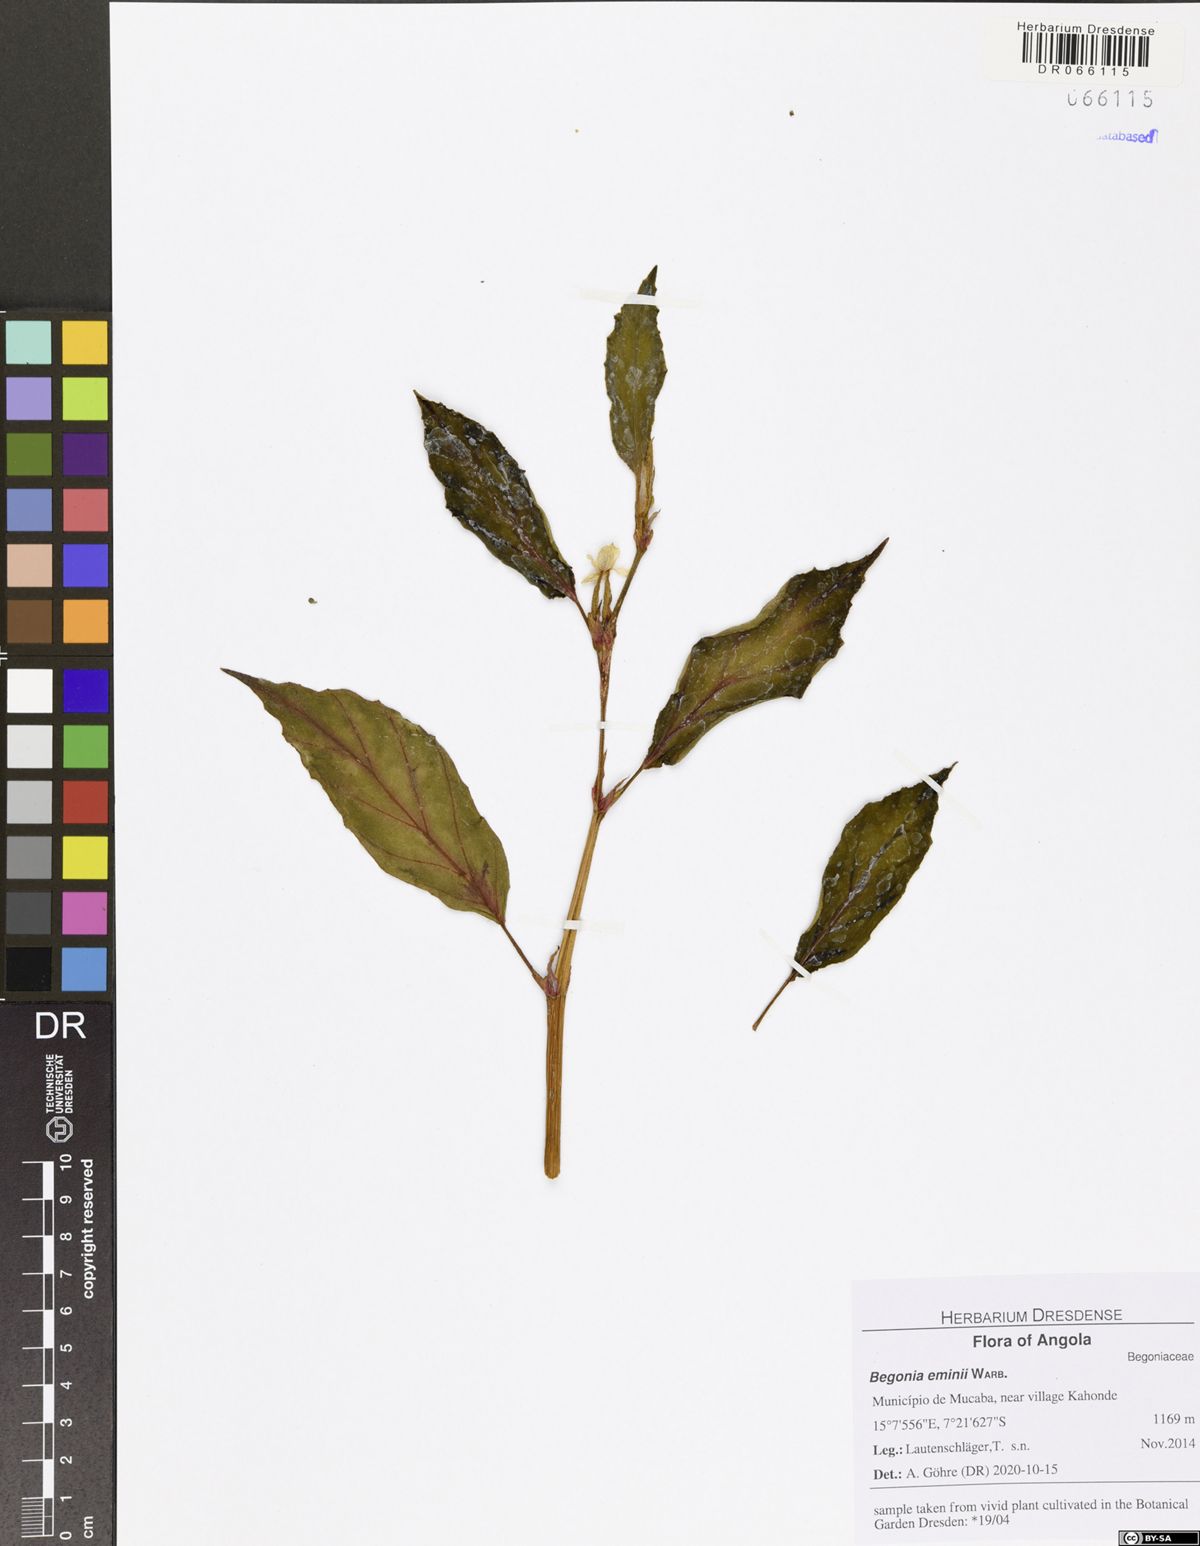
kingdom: Plantae
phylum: Tracheophyta
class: Magnoliopsida
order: Cucurbitales
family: Begoniaceae
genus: Begonia
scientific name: Begonia eminii
